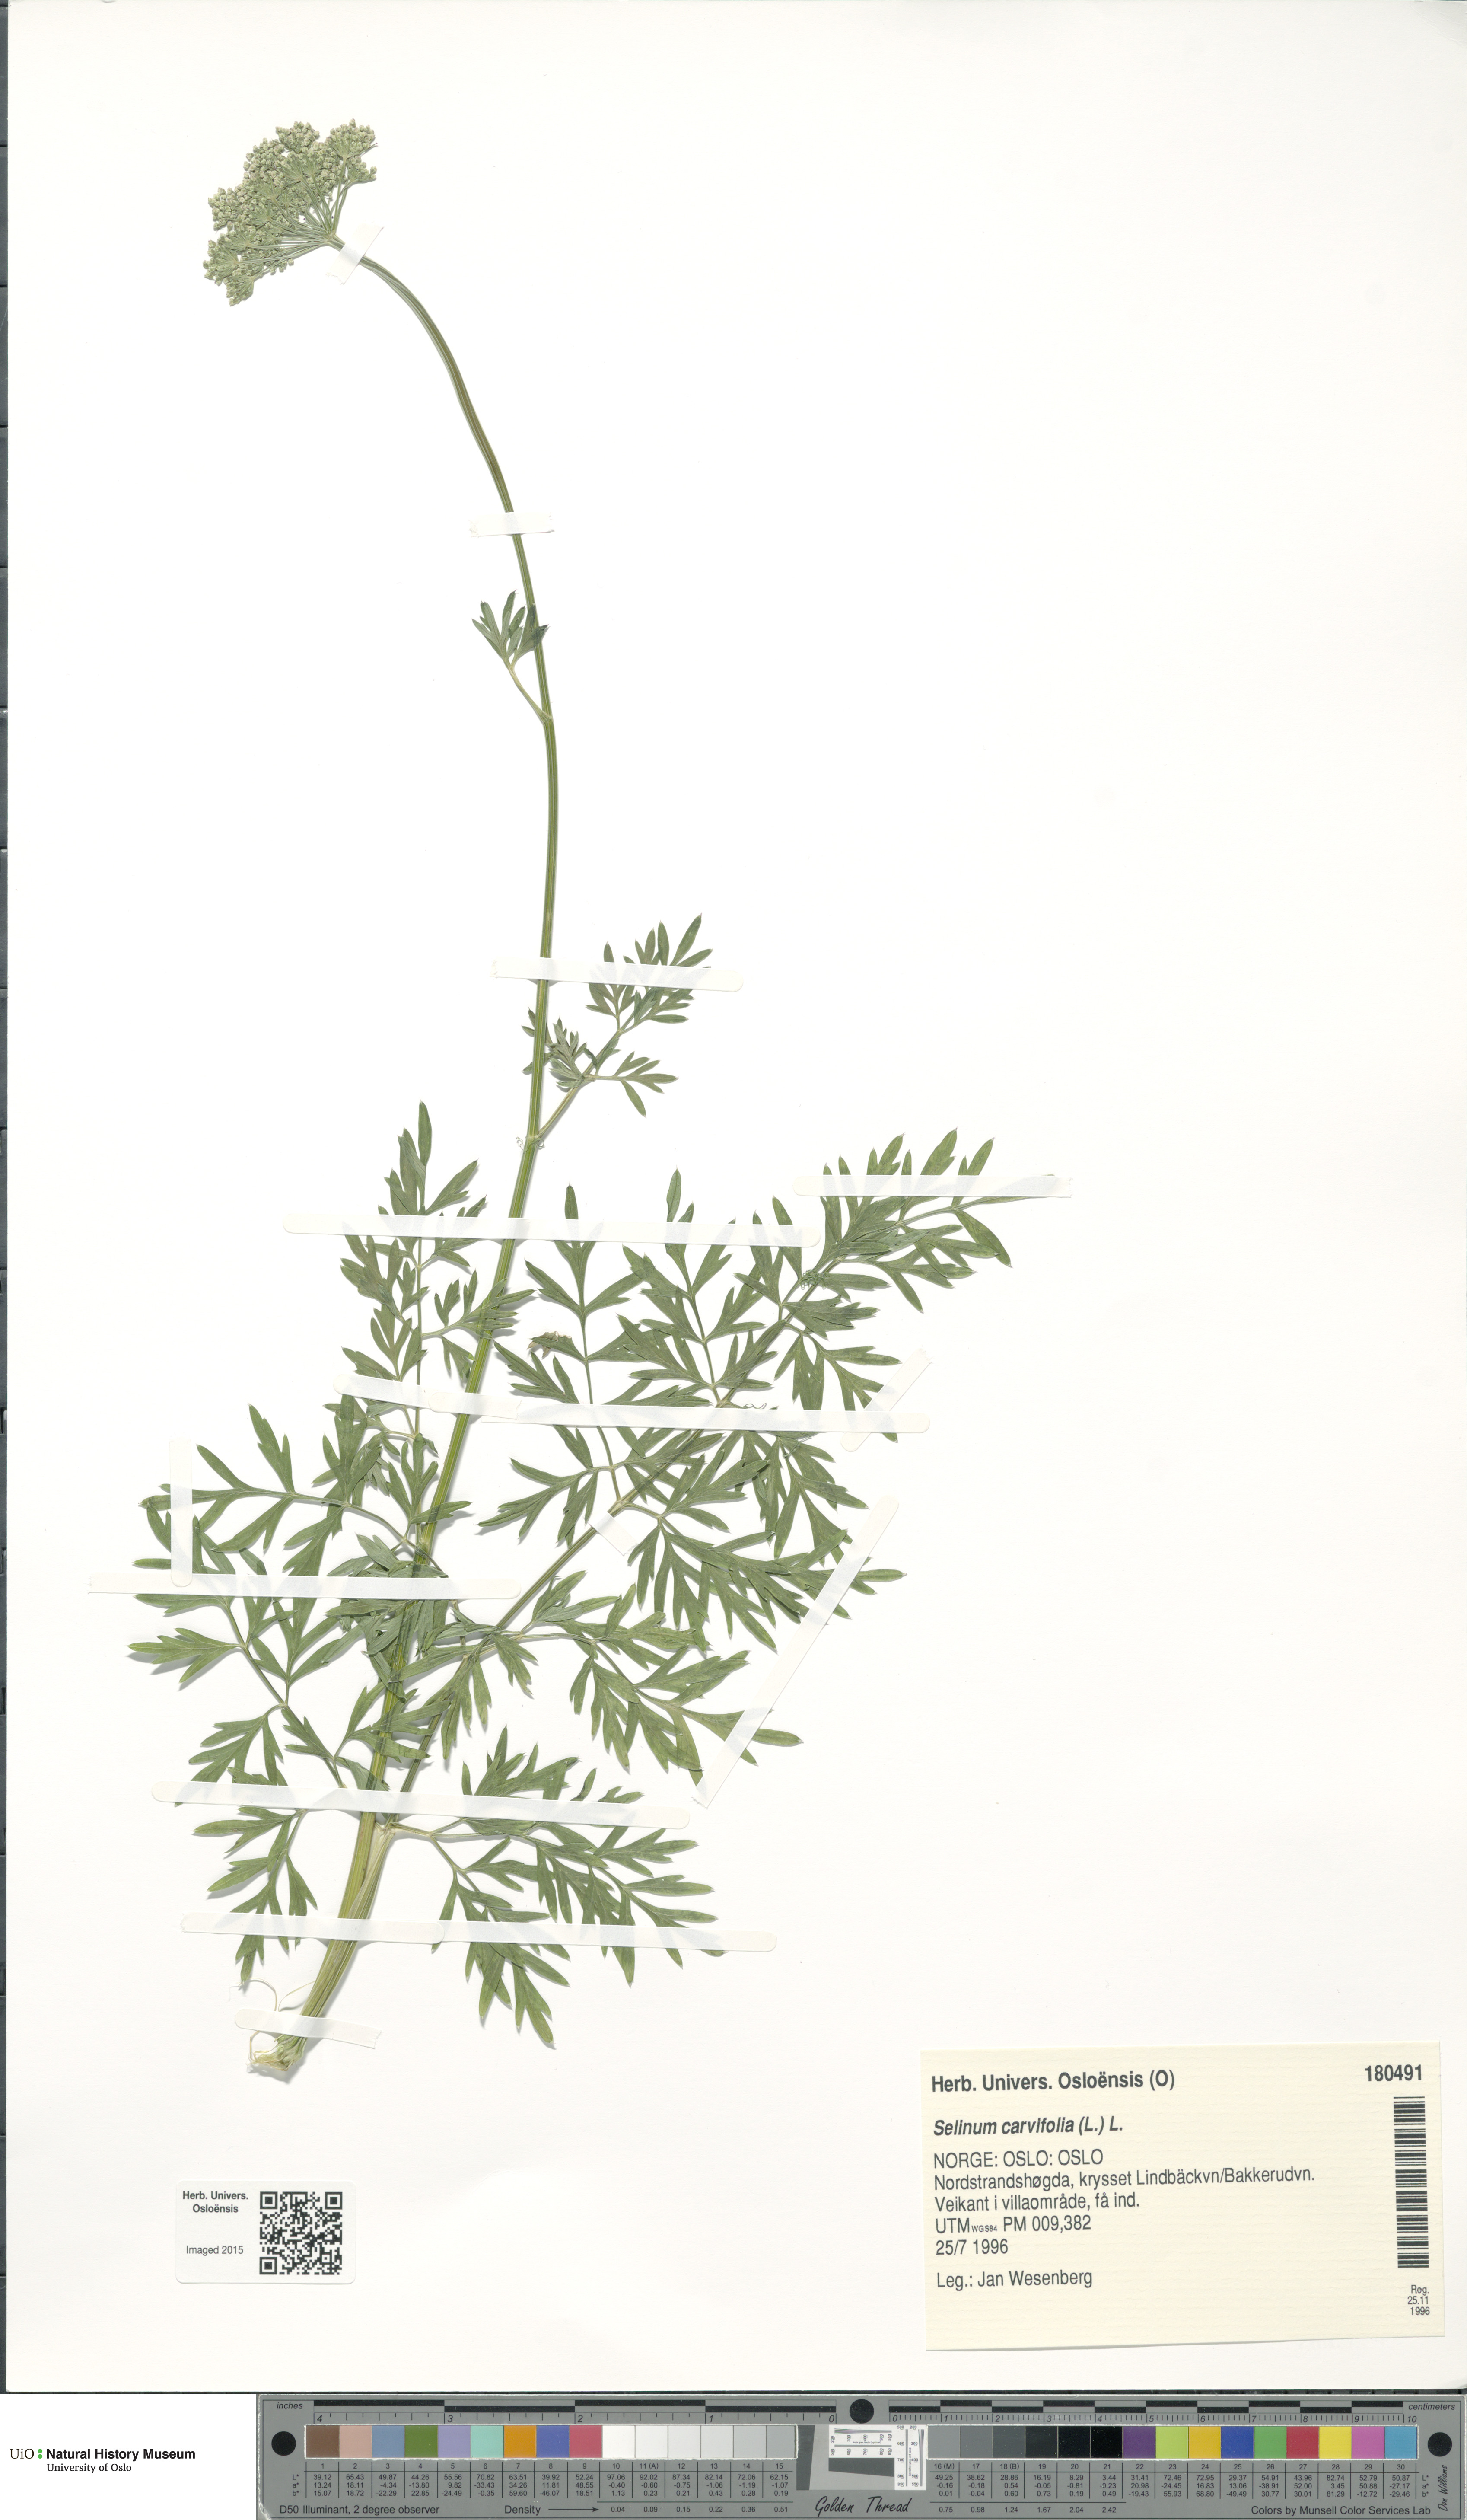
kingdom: Plantae
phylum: Tracheophyta
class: Magnoliopsida
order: Apiales
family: Apiaceae
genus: Selinum
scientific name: Selinum carvifolia
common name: Cambridge milk-parsley
